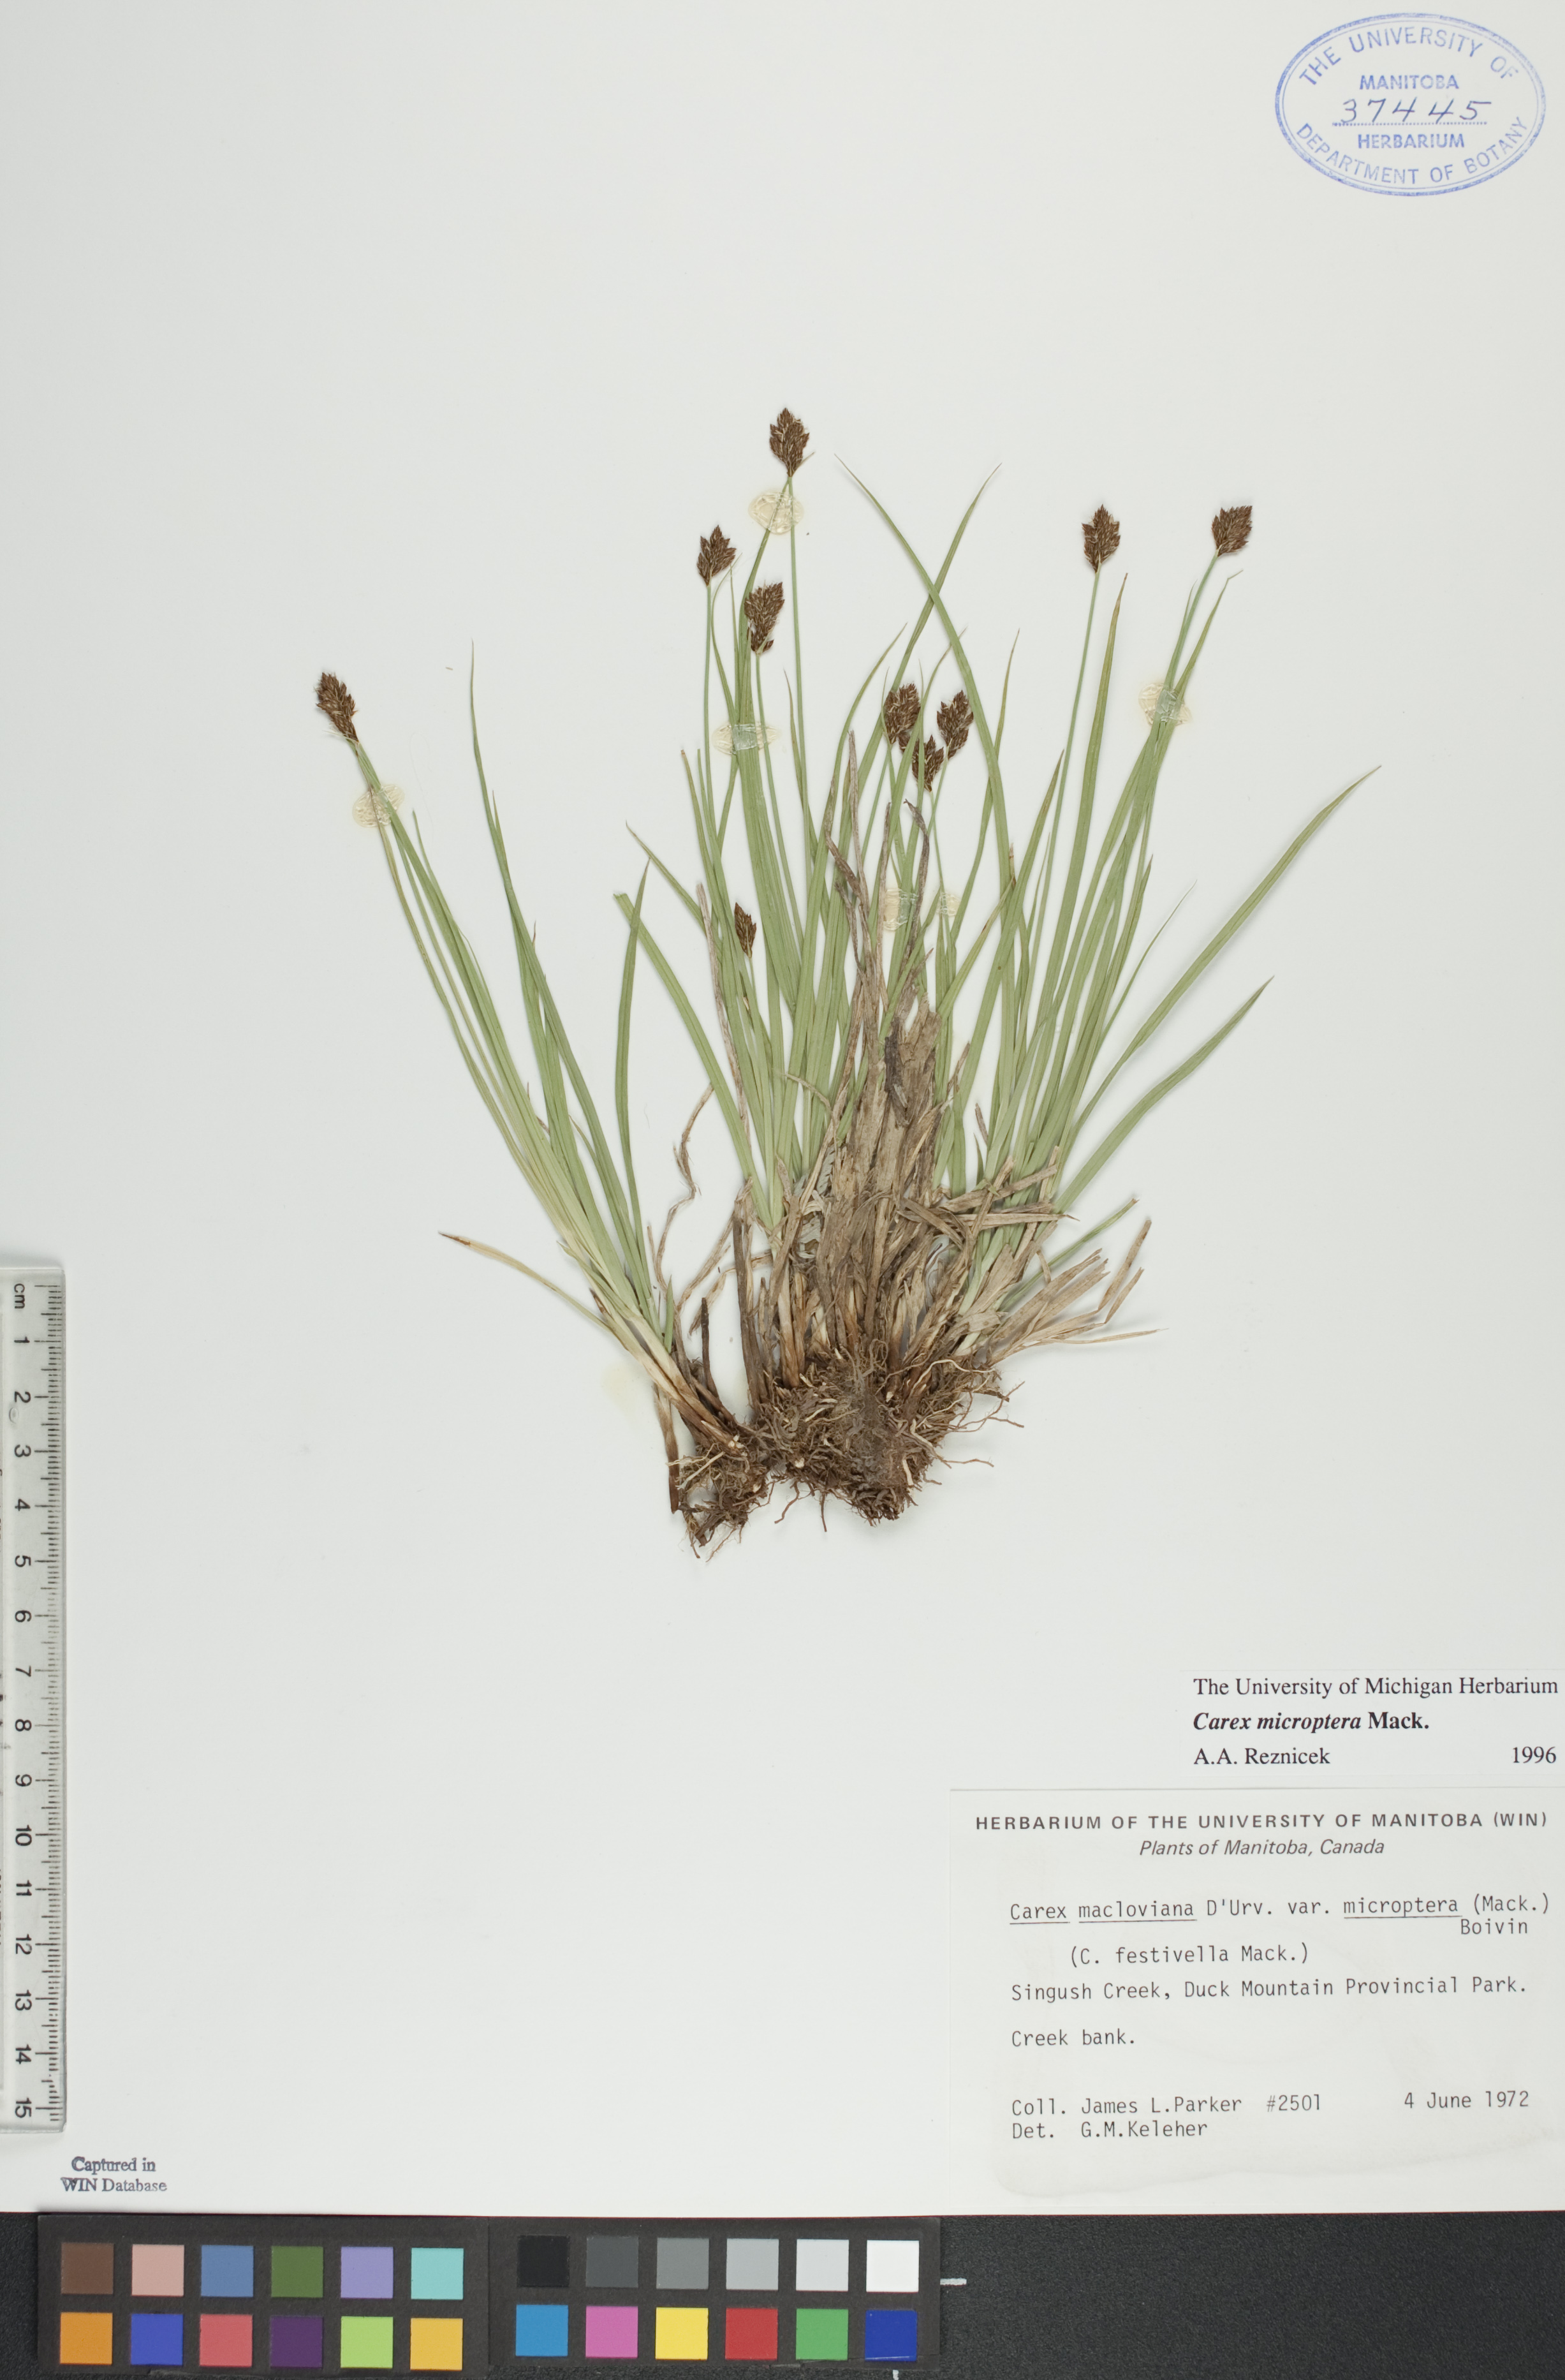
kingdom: Plantae
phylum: Tracheophyta
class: Liliopsida
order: Poales
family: Cyperaceae
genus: Carex
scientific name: Carex microptera
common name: Oval-headed sedge
